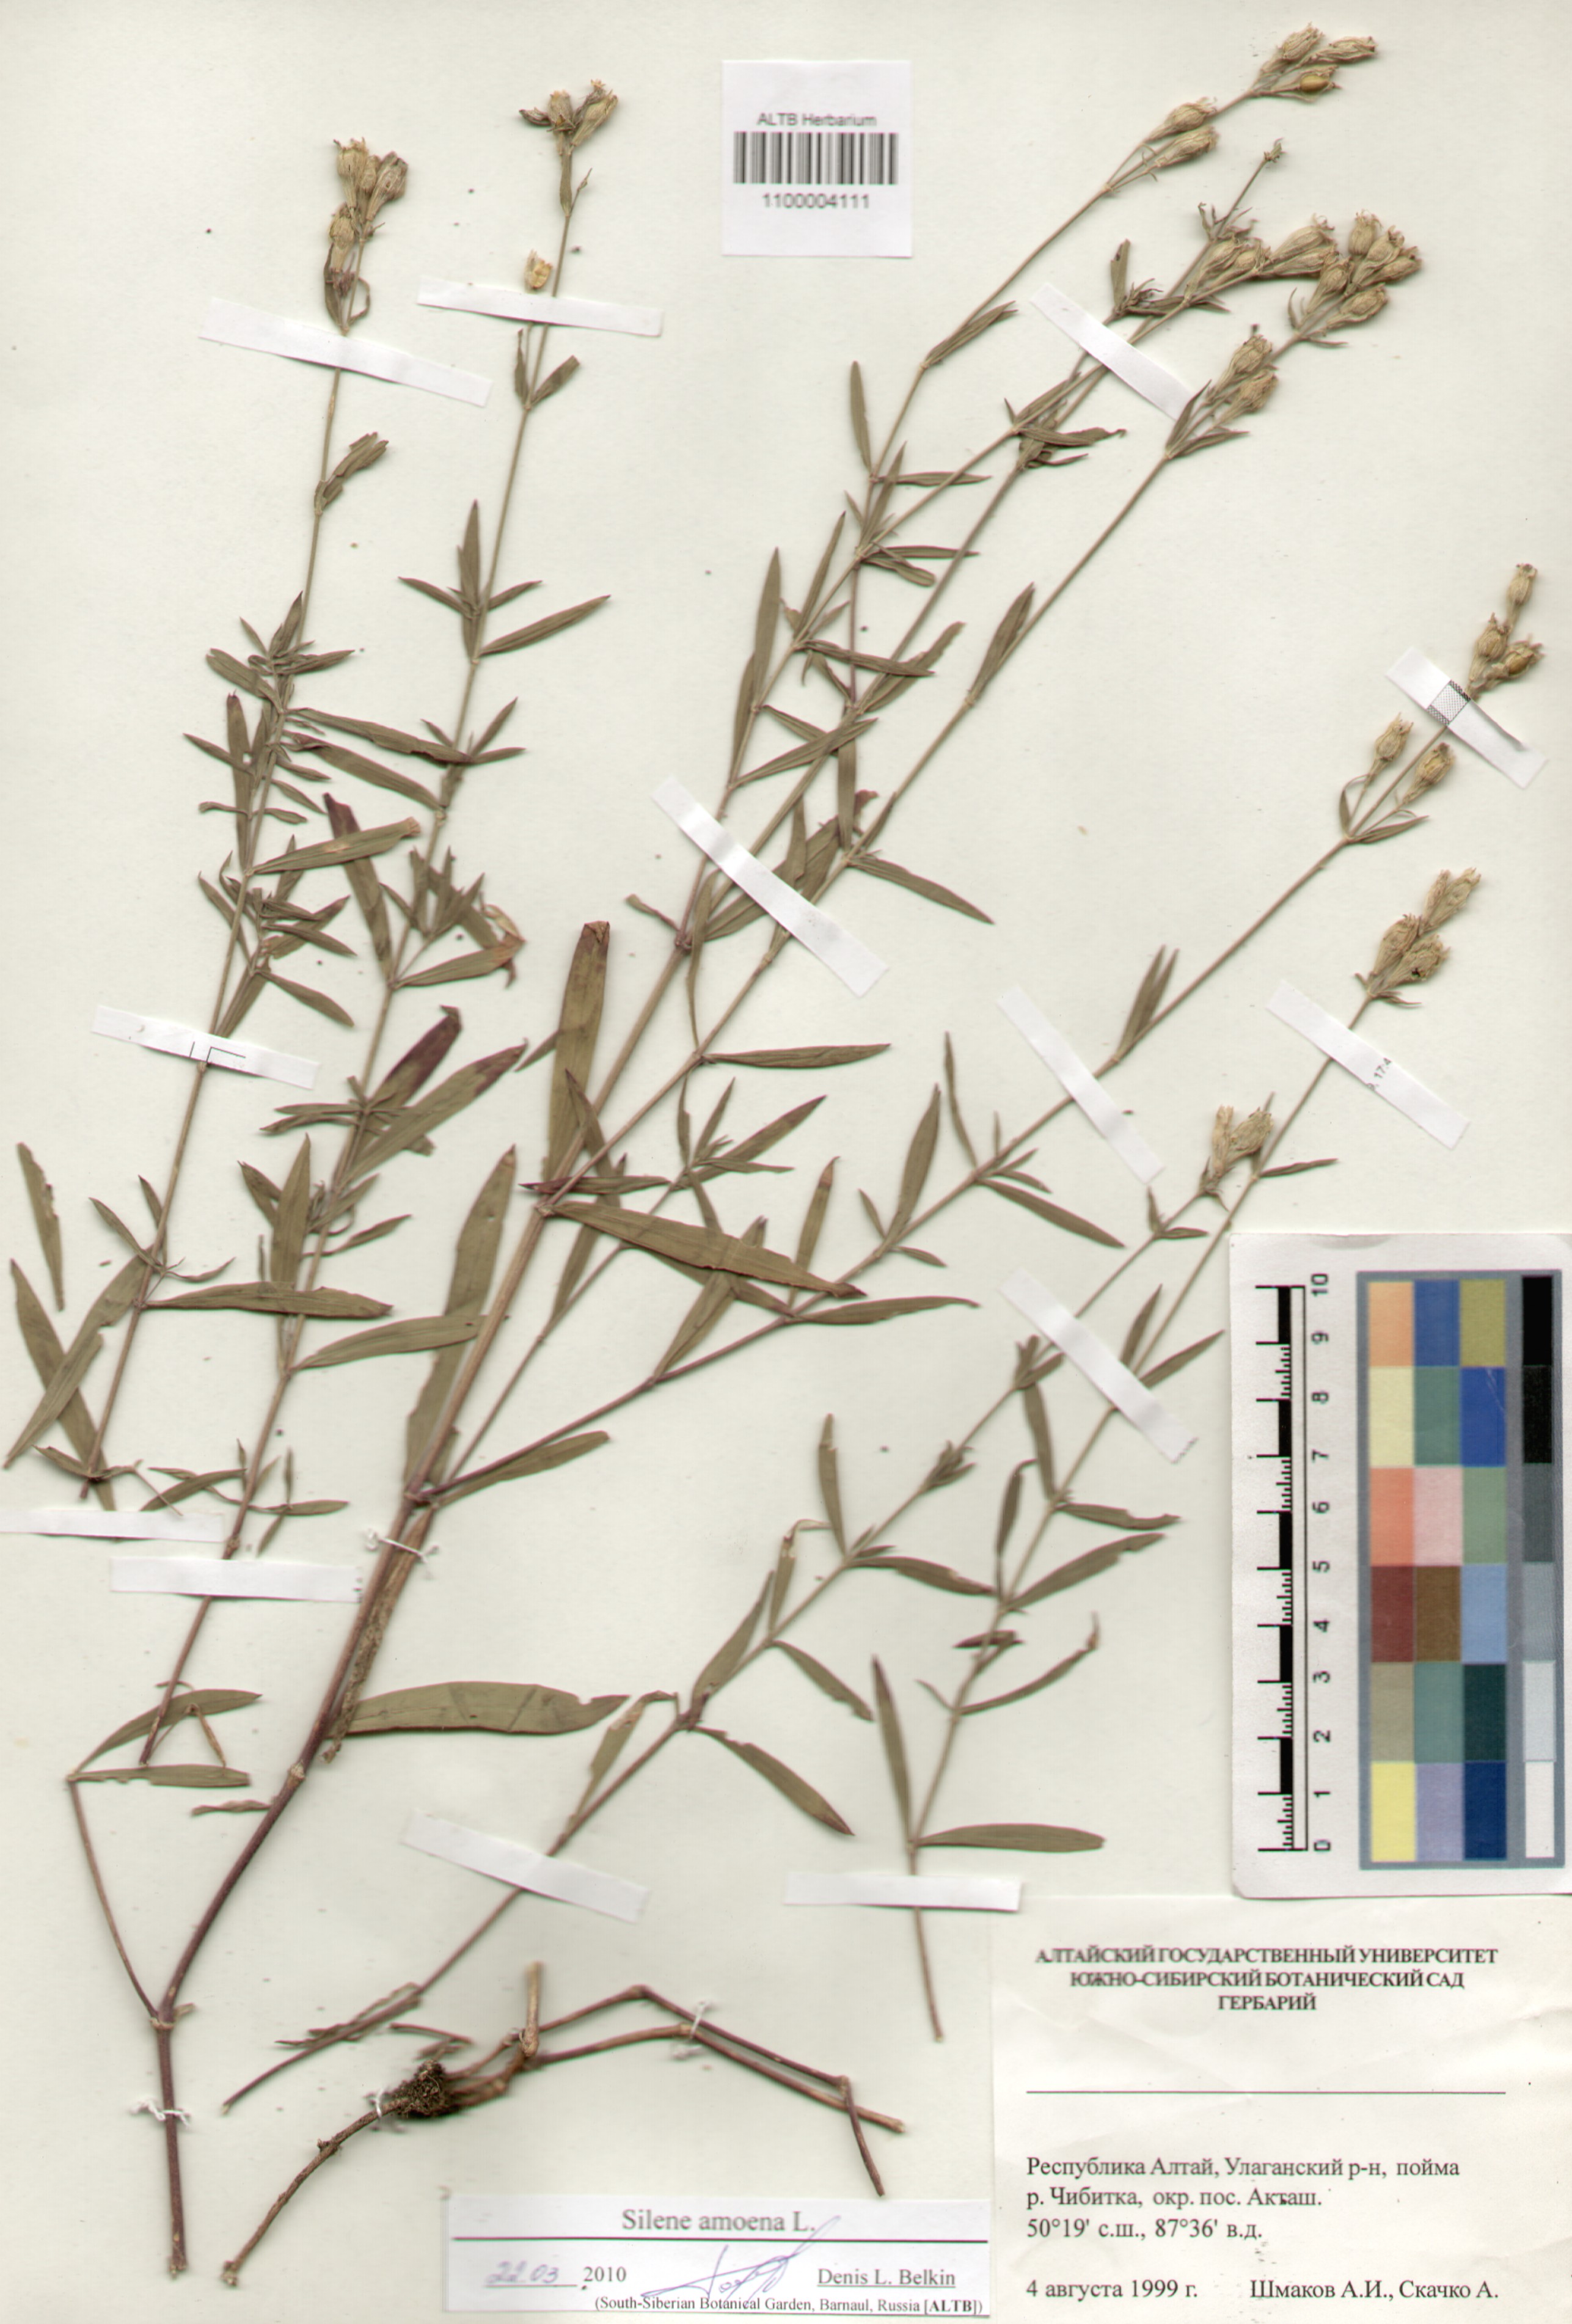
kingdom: Plantae
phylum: Tracheophyta
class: Magnoliopsida
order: Caryophyllales
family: Caryophyllaceae
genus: Silene
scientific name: Silene amoena
